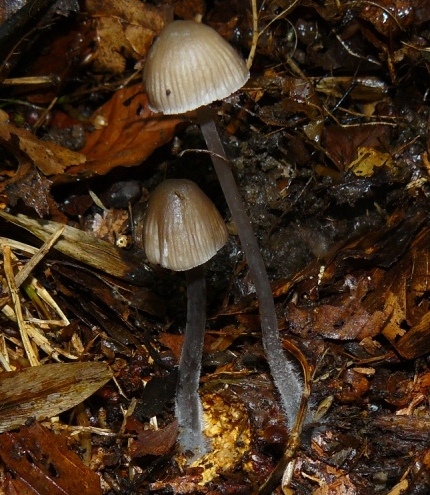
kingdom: Fungi
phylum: Basidiomycota
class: Agaricomycetes
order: Agaricales
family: Mycenaceae
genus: Mycena
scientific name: Mycena abramsii
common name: sommer-huesvamp
